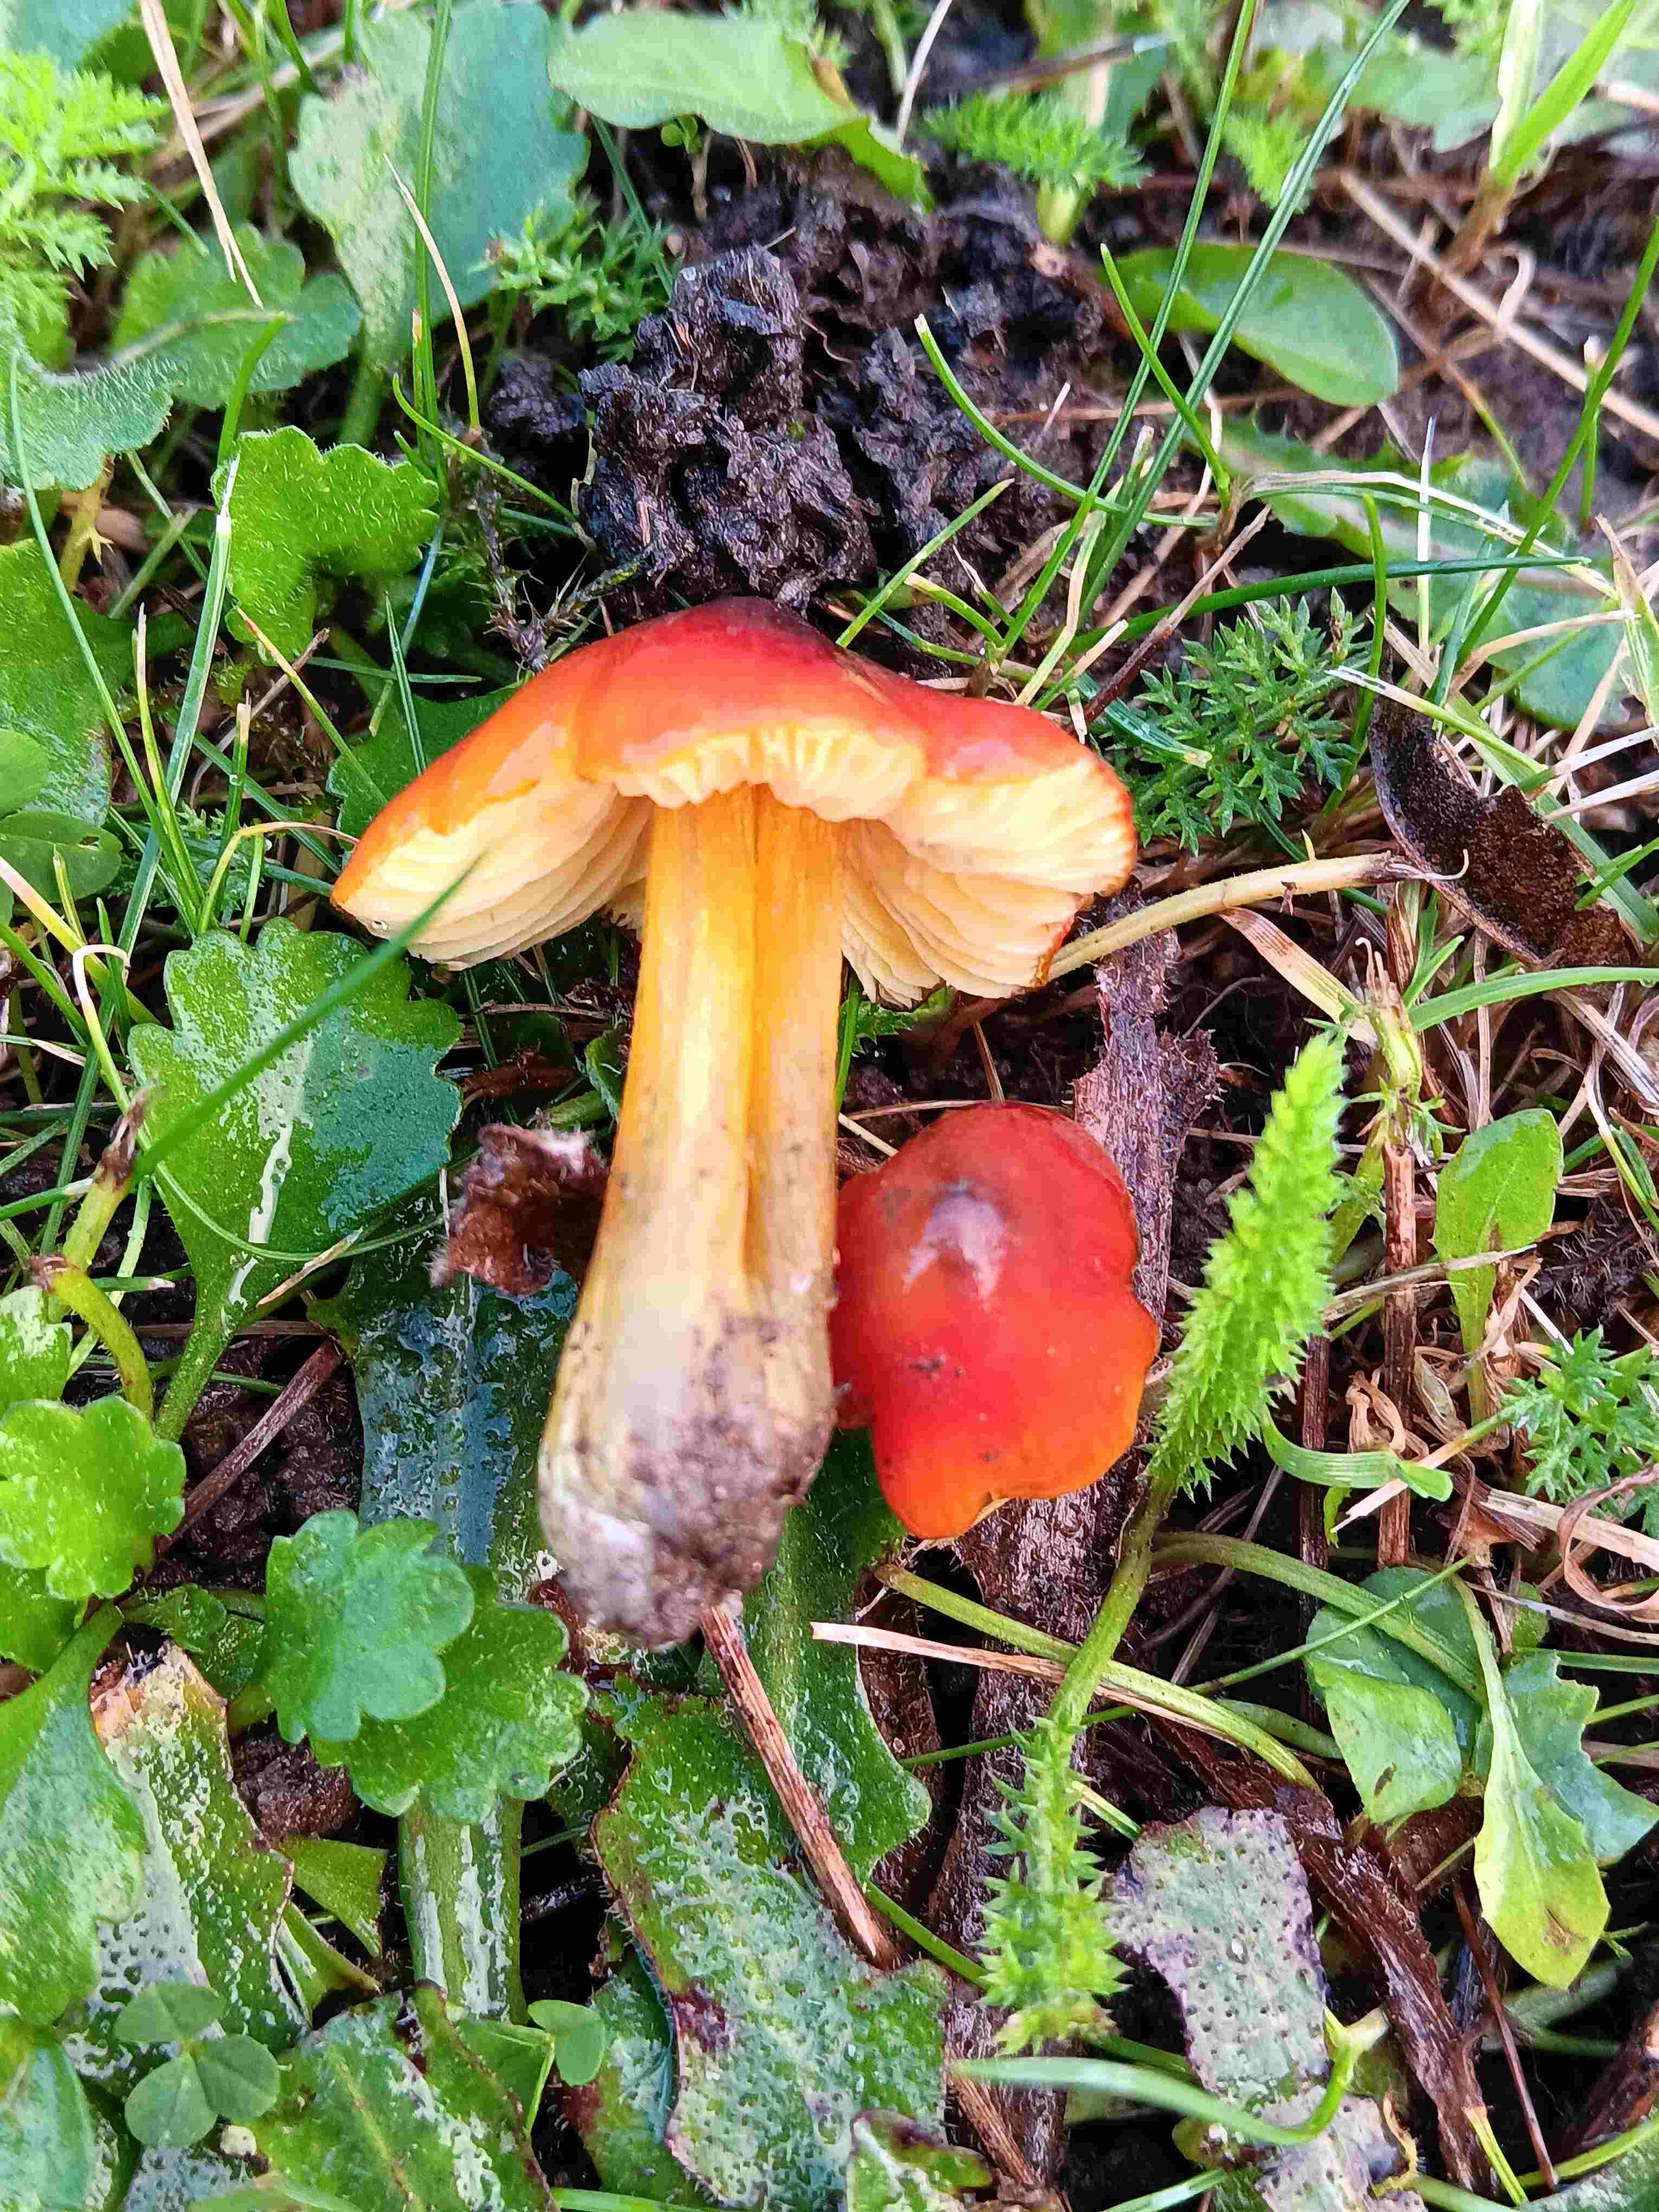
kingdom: Fungi
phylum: Basidiomycota
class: Agaricomycetes
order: Agaricales
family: Hygrophoraceae
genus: Hygrocybe
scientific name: Hygrocybe conica
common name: kegle-vokshat
